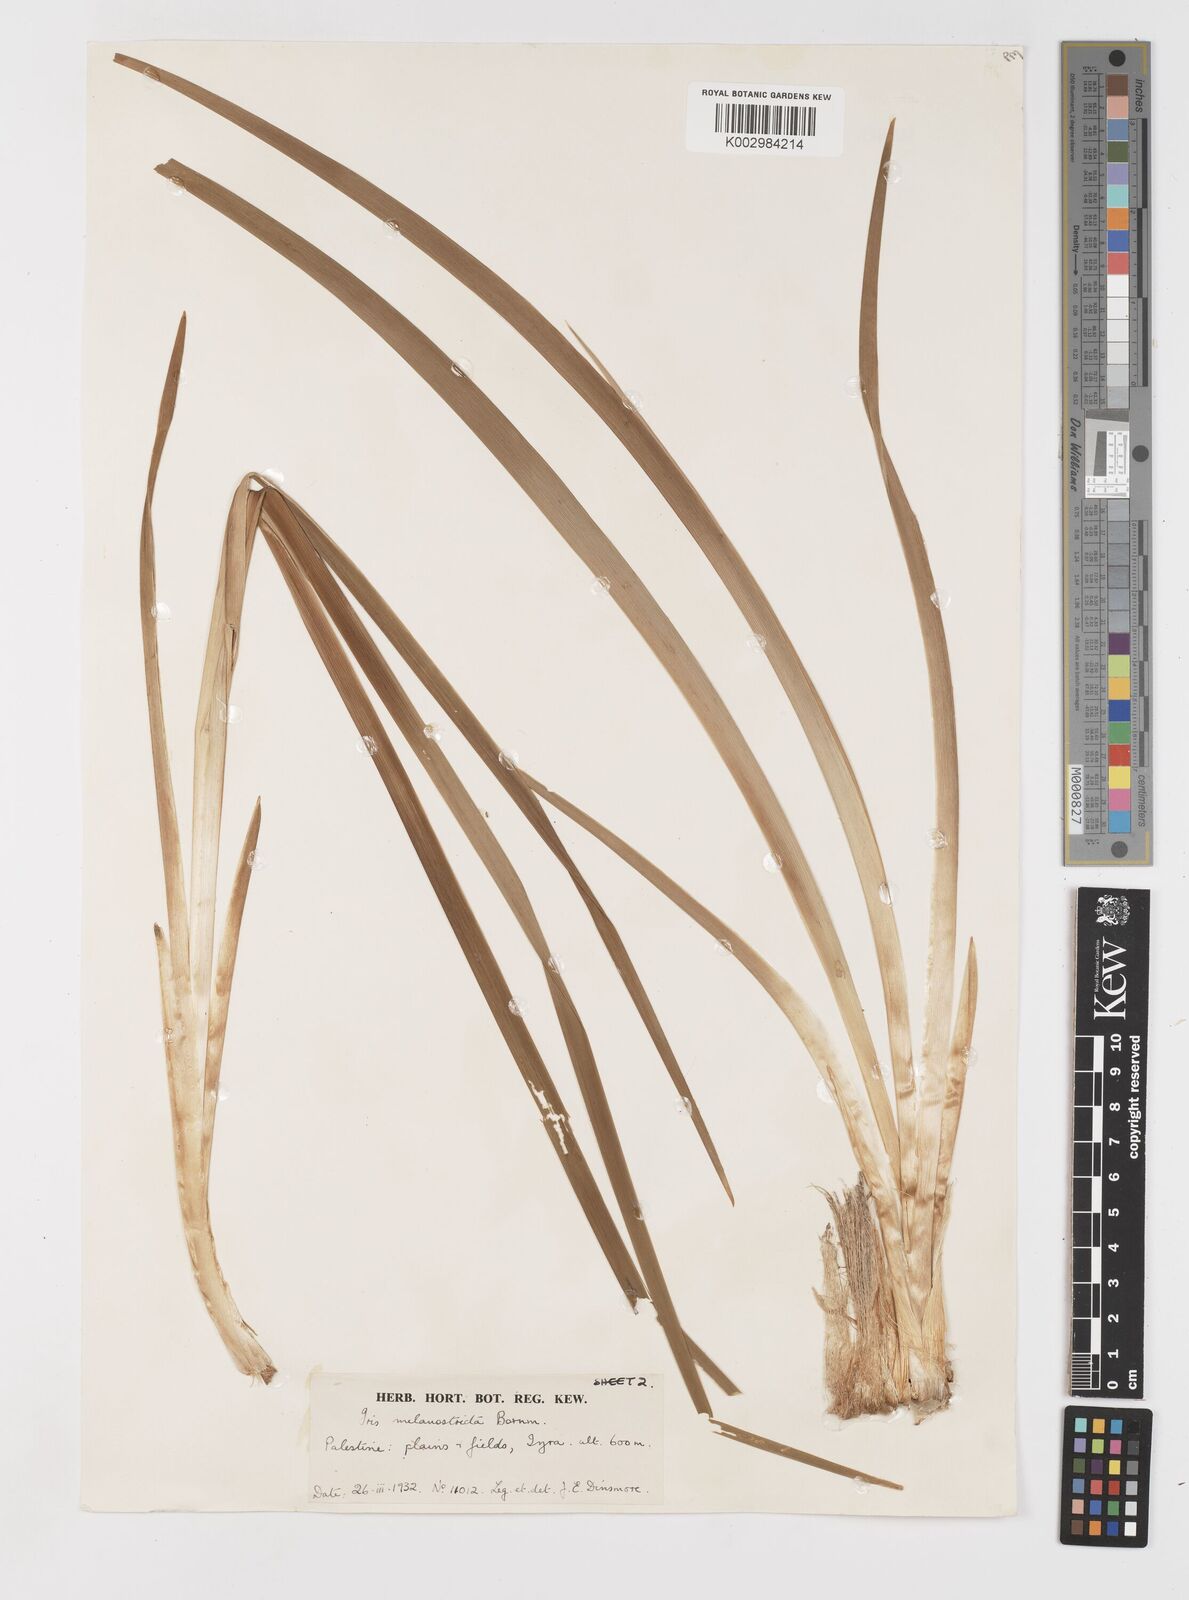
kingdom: Plantae
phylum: Tracheophyta
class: Liliopsida
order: Asparagales
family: Iridaceae
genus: Iris
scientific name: Iris grant-duffii
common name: Grant duff's iris
